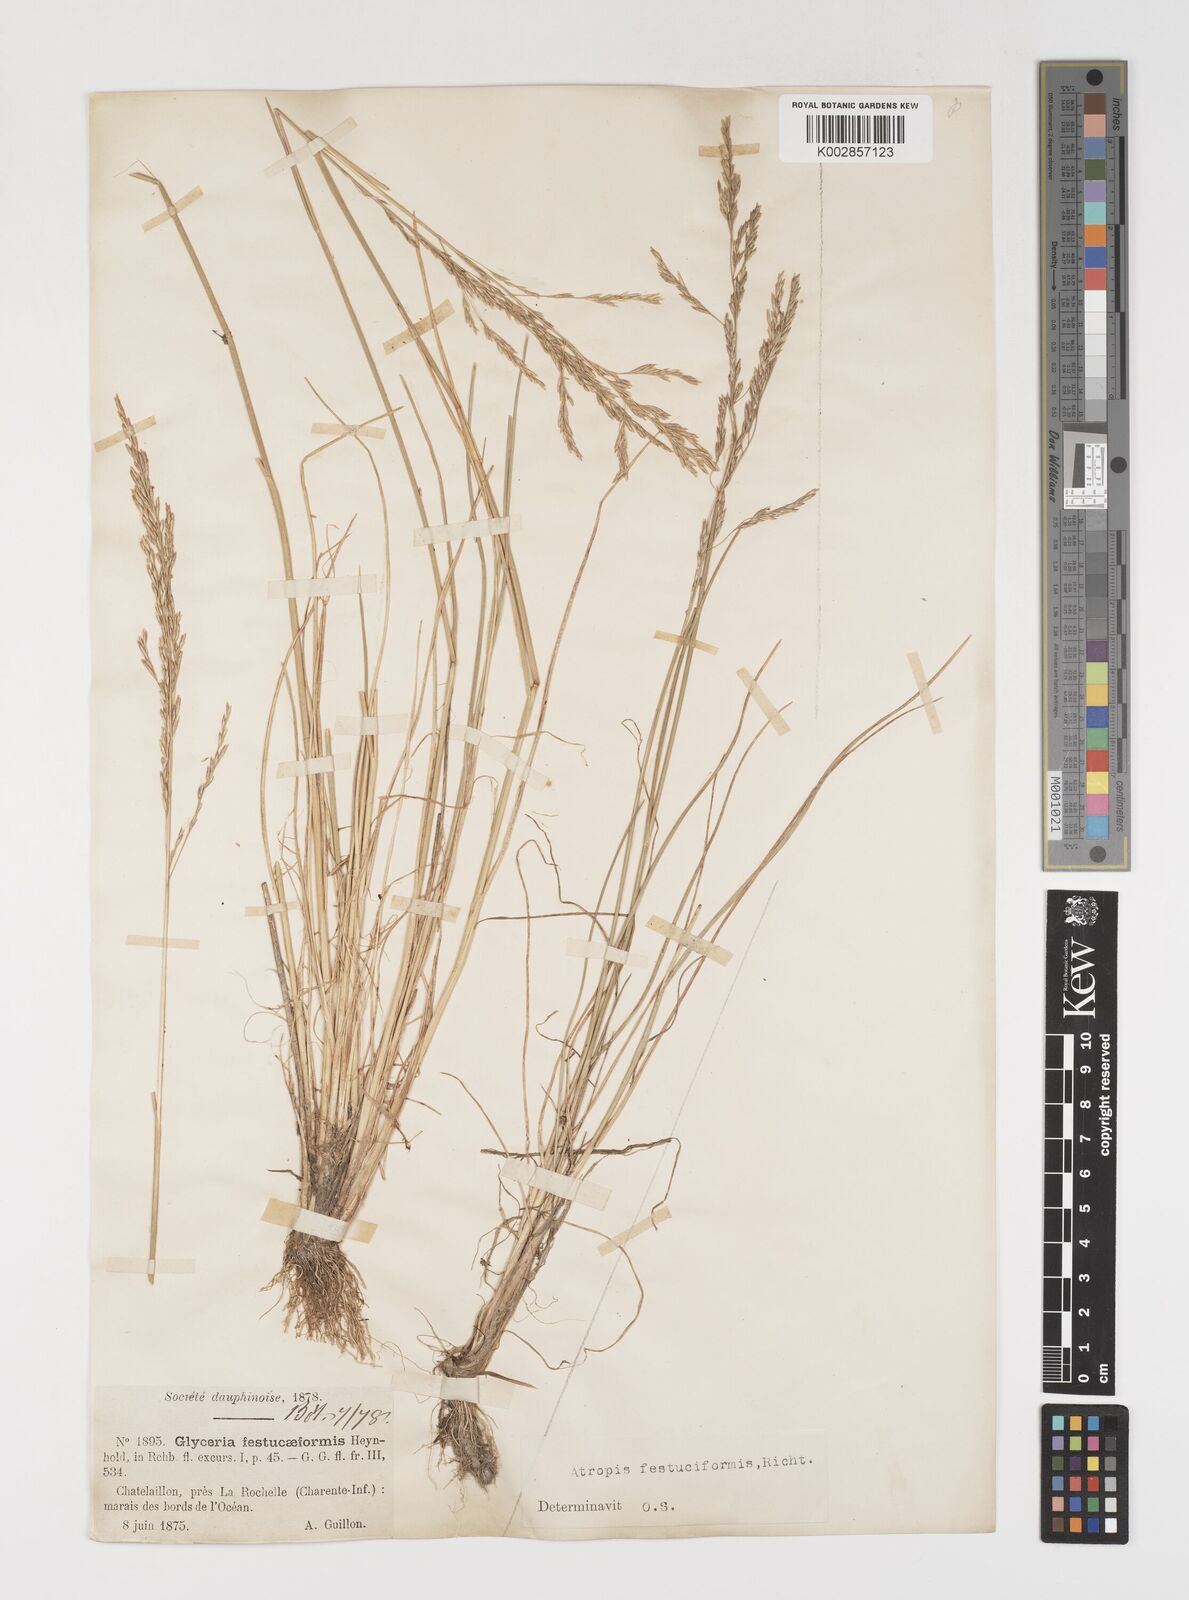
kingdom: Plantae
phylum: Tracheophyta
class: Liliopsida
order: Poales
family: Poaceae
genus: Puccinellia
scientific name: Puccinellia festuciformis
